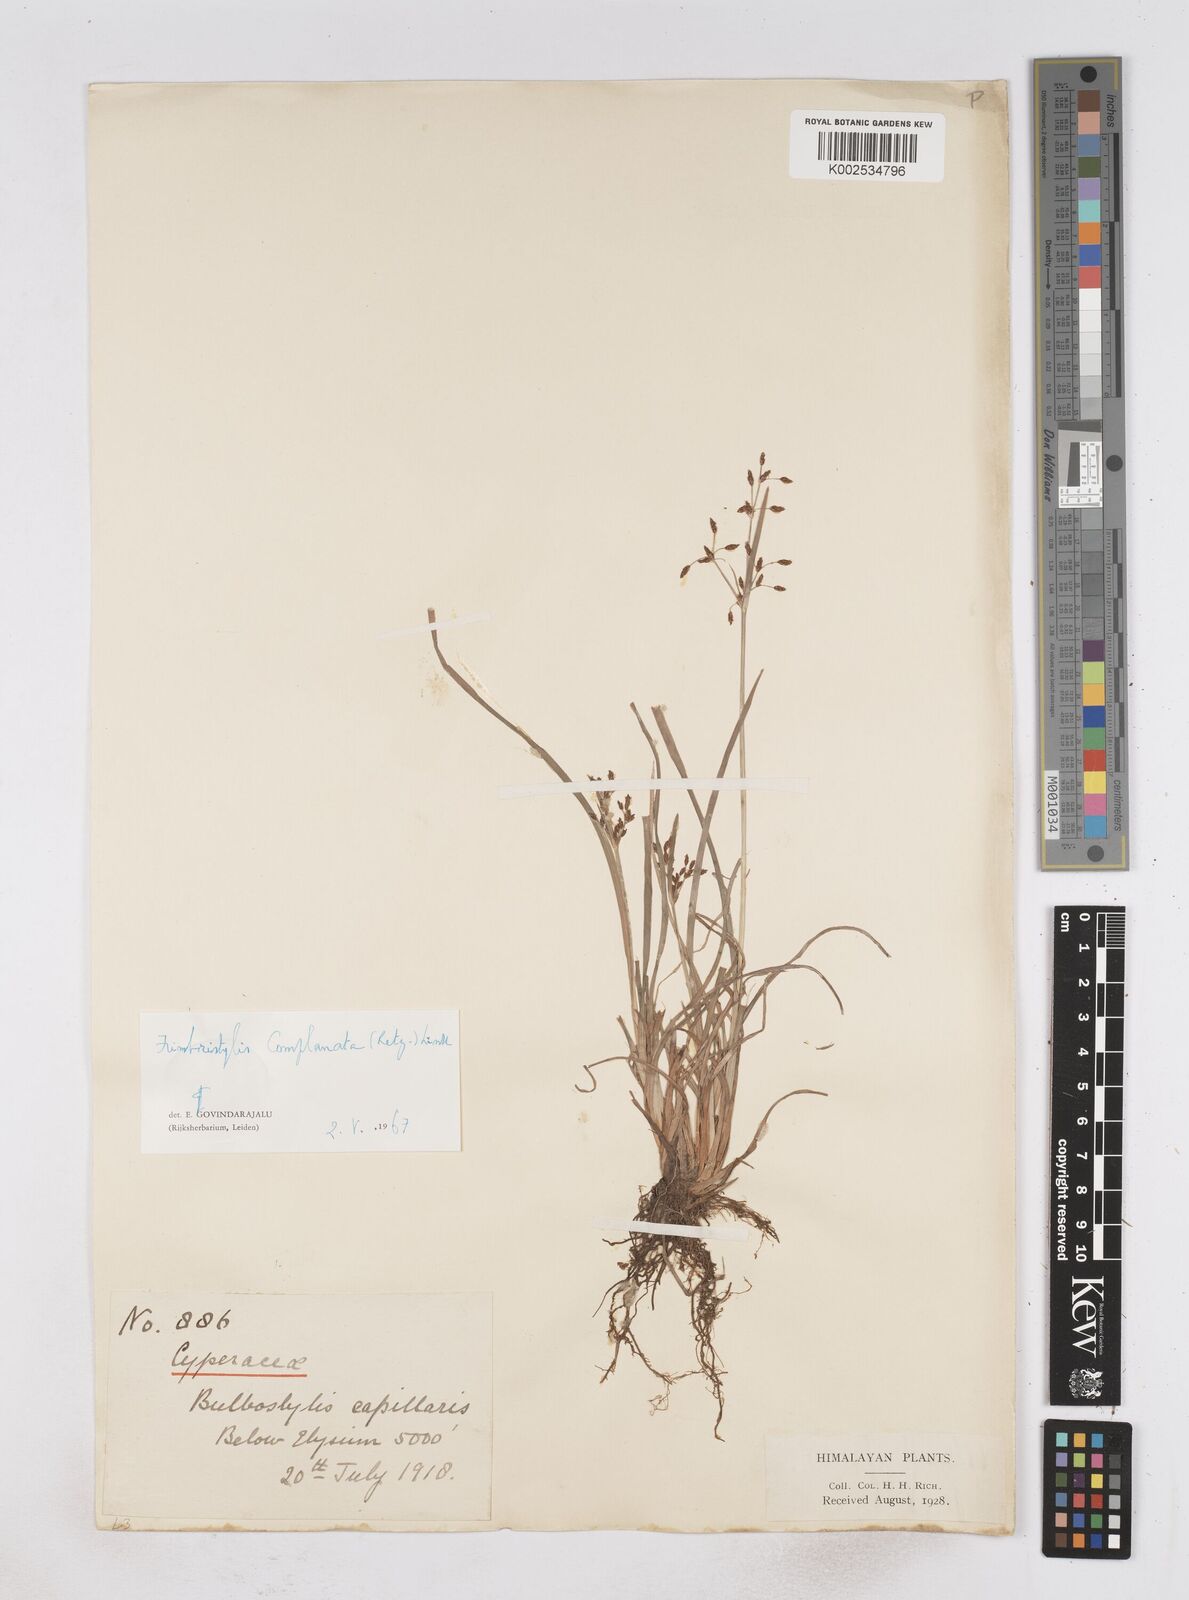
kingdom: Plantae
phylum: Tracheophyta
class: Liliopsida
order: Poales
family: Cyperaceae
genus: Fimbristylis
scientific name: Fimbristylis complanata
